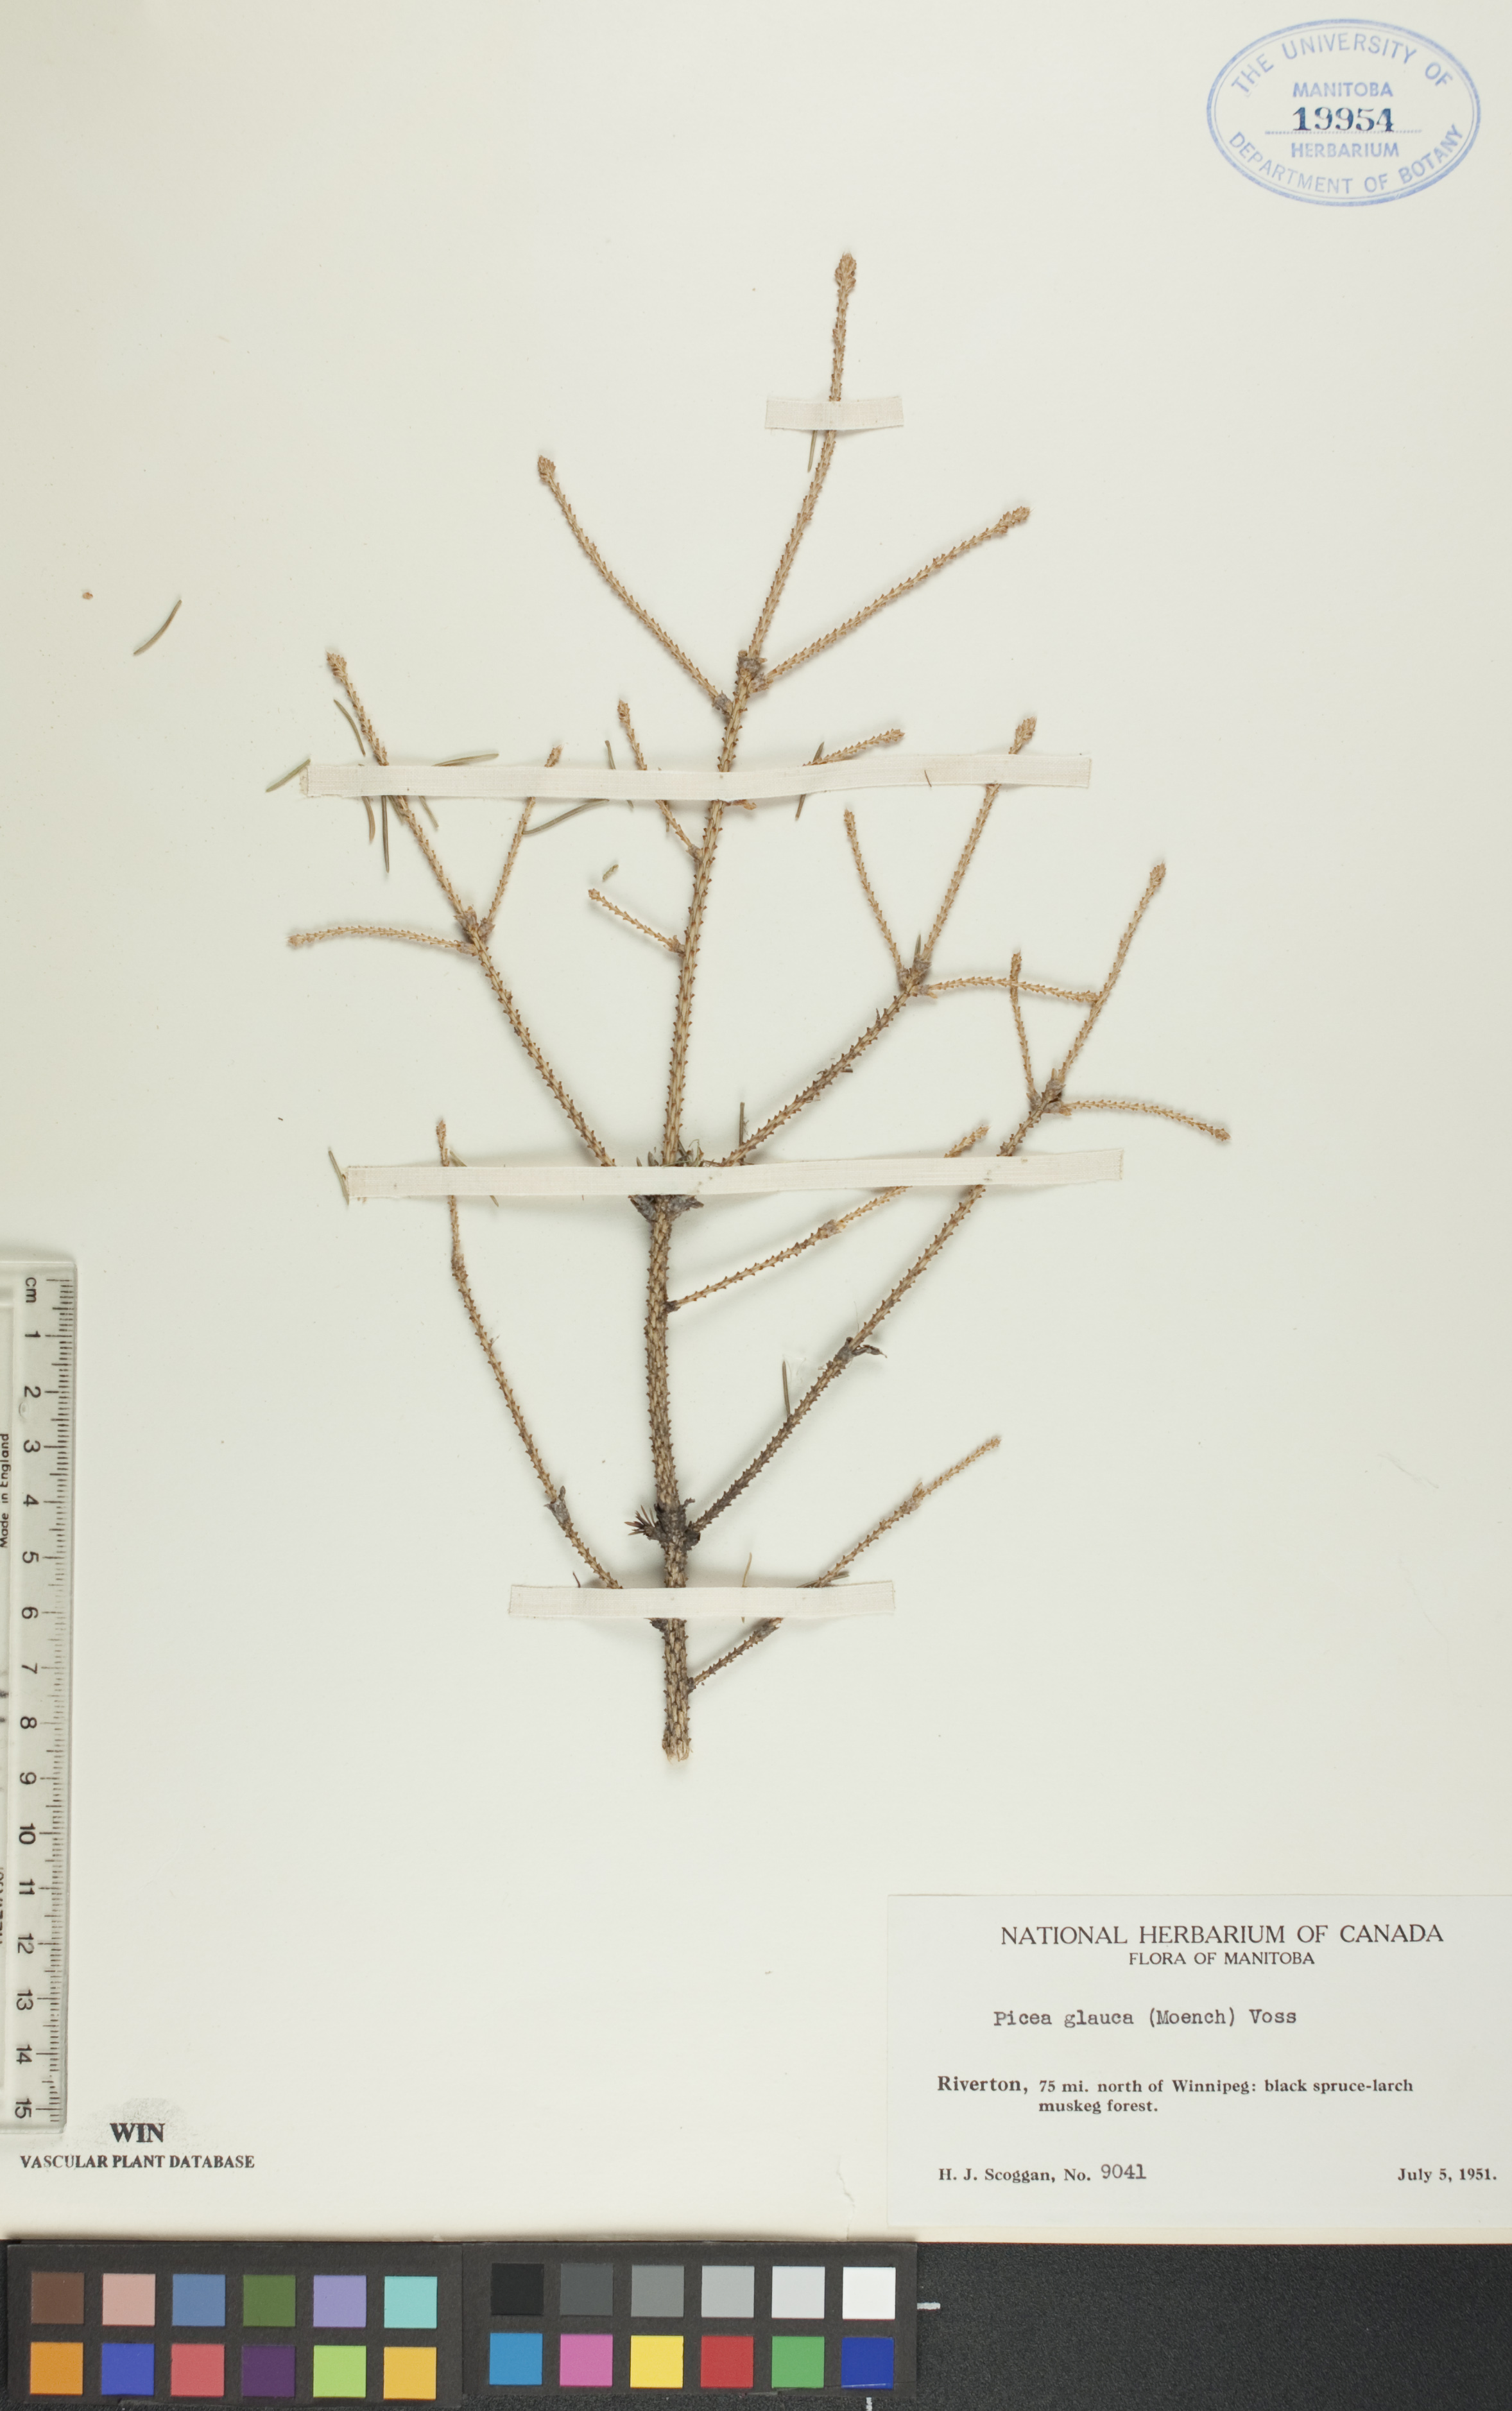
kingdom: Plantae
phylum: Tracheophyta
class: Pinopsida
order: Pinales
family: Pinaceae
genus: Picea
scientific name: Picea glauca
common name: White spruce
